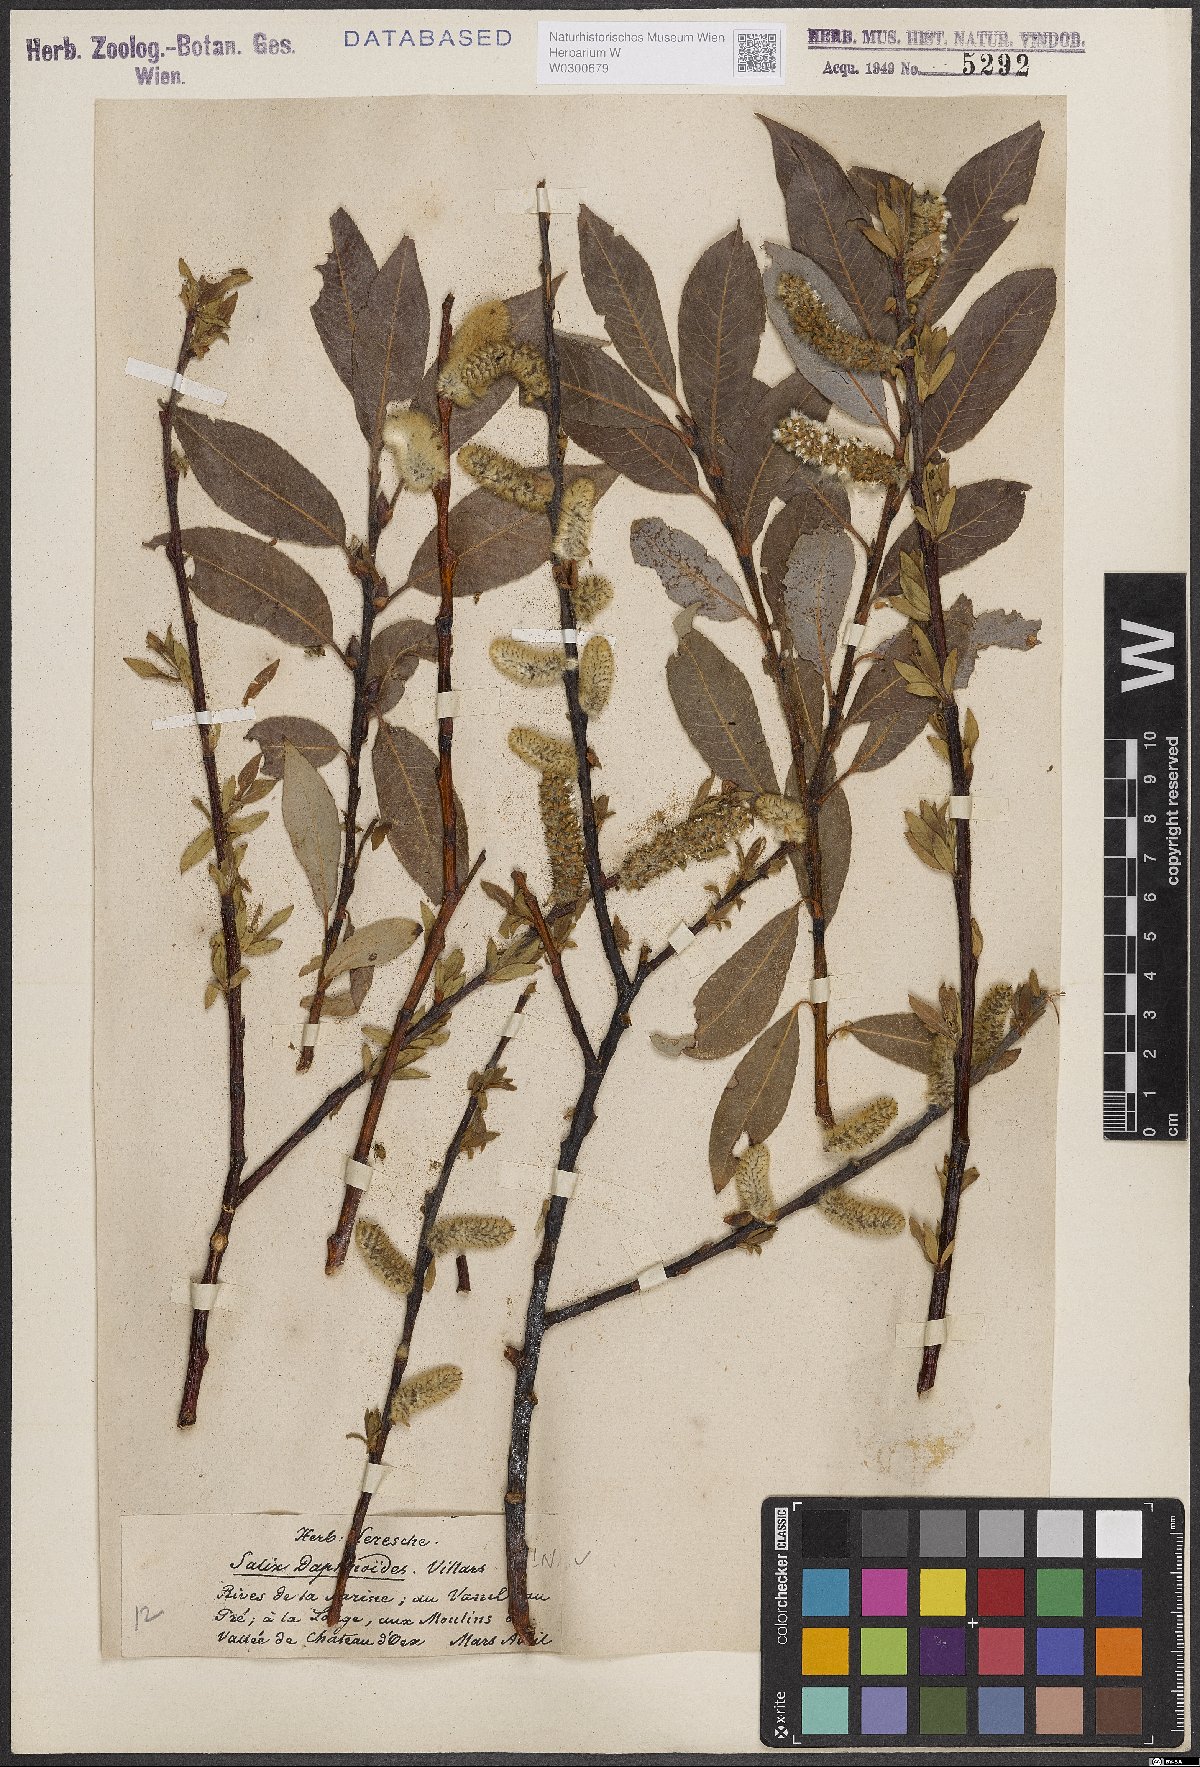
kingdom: Plantae
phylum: Tracheophyta
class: Magnoliopsida
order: Malpighiales
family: Salicaceae
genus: Salix
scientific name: Salix daphnoides
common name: European violet-willow
